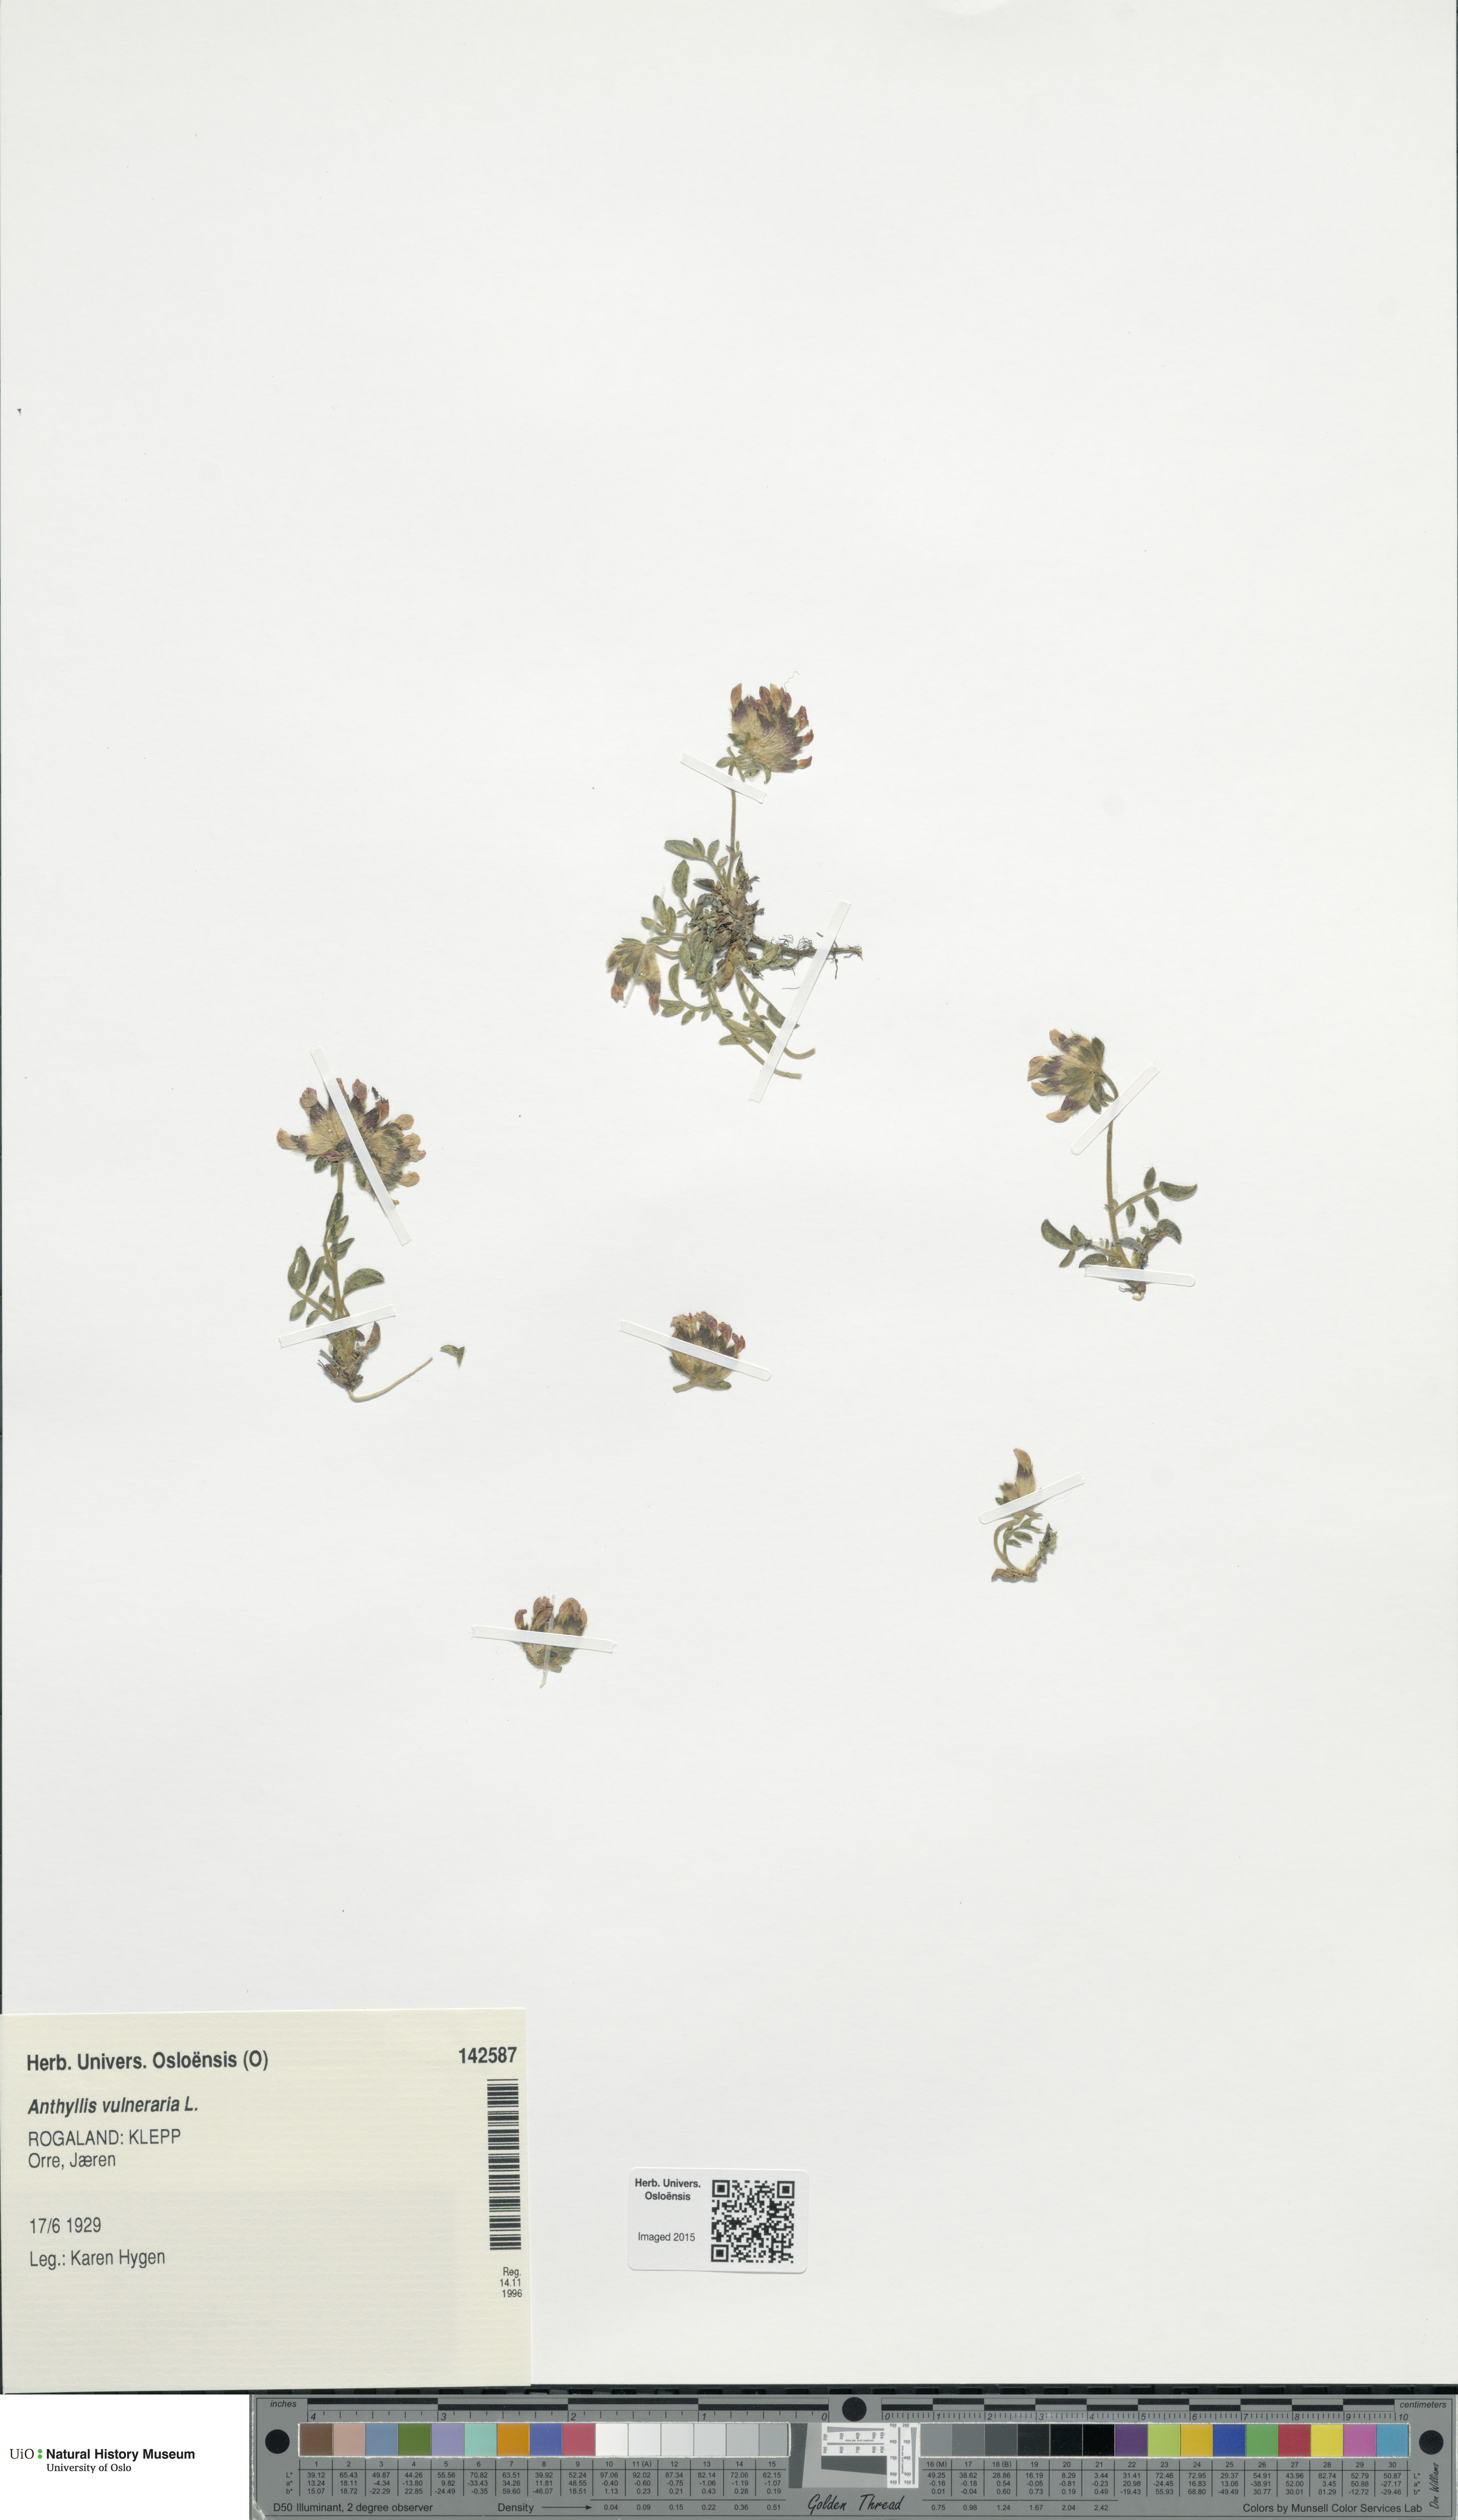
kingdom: Plantae
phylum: Tracheophyta
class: Magnoliopsida
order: Fabales
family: Fabaceae
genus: Anthyllis
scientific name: Anthyllis vulneraria
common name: Kidney vetch
